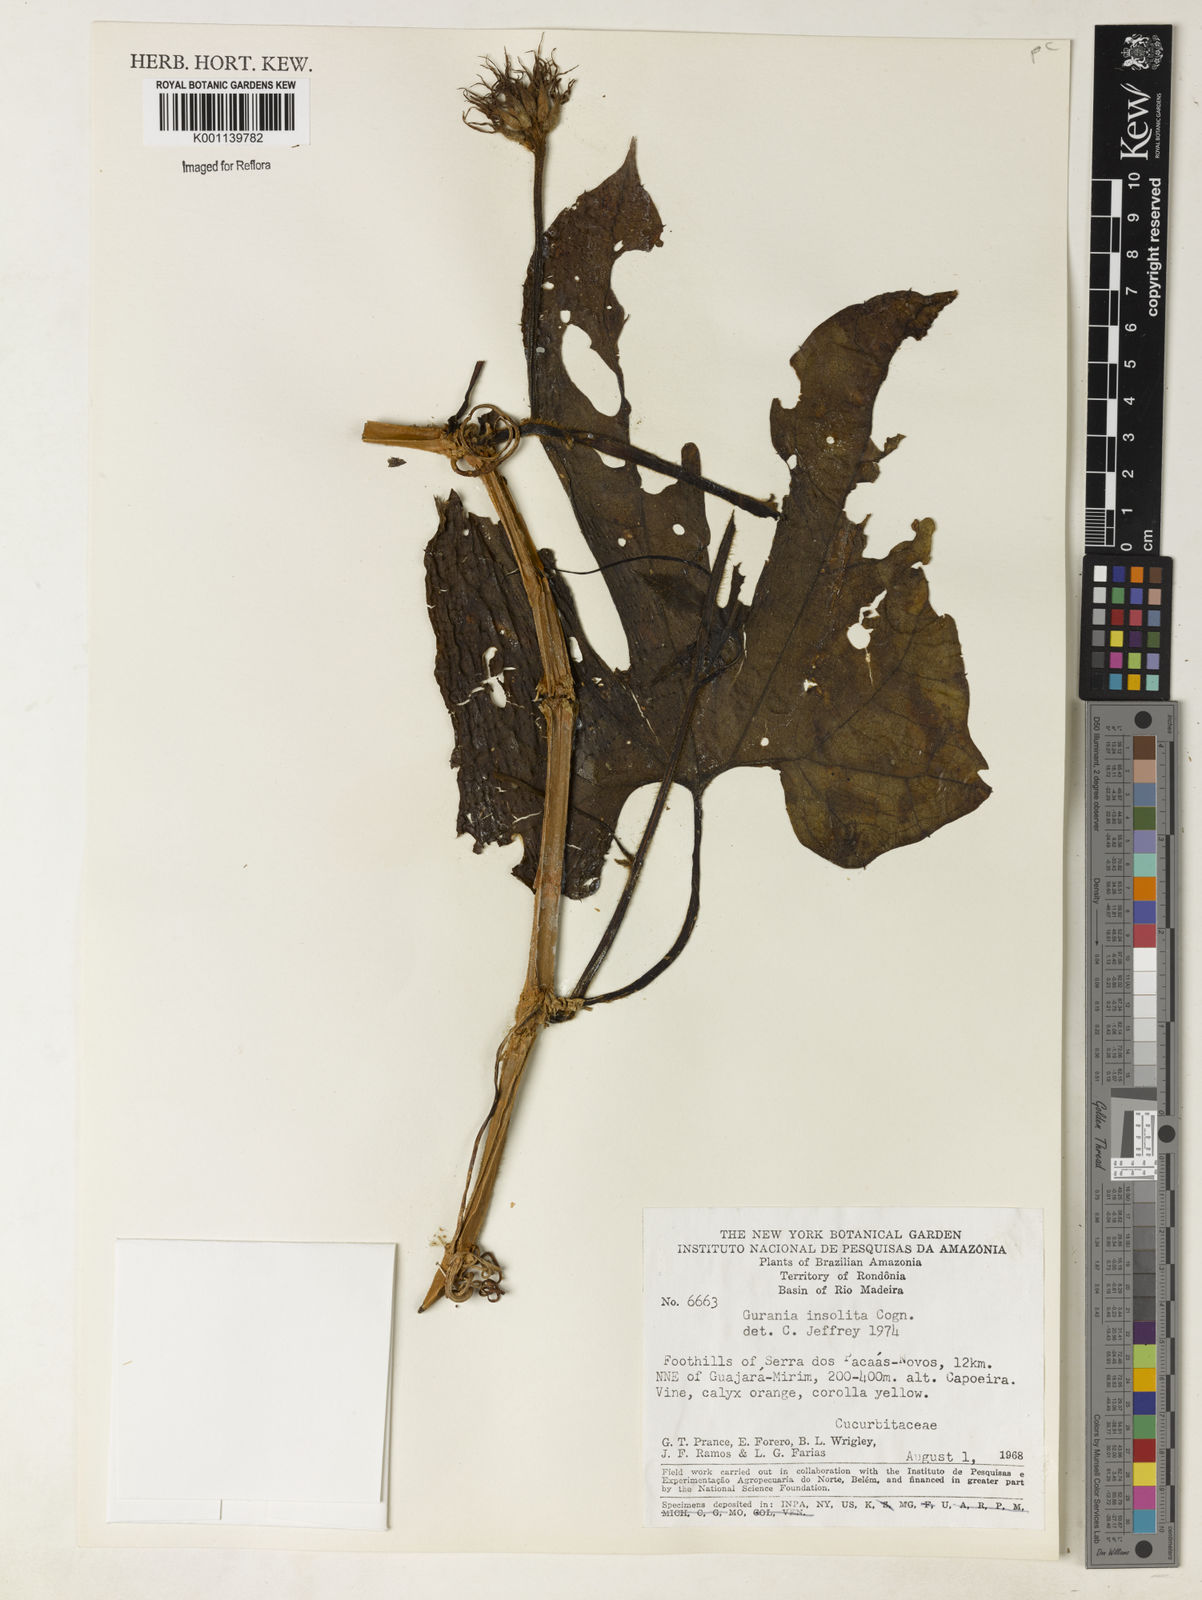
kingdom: Plantae
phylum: Tracheophyta
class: Magnoliopsida
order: Cucurbitales
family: Cucurbitaceae
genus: Gurania
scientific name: Gurania sinuata
